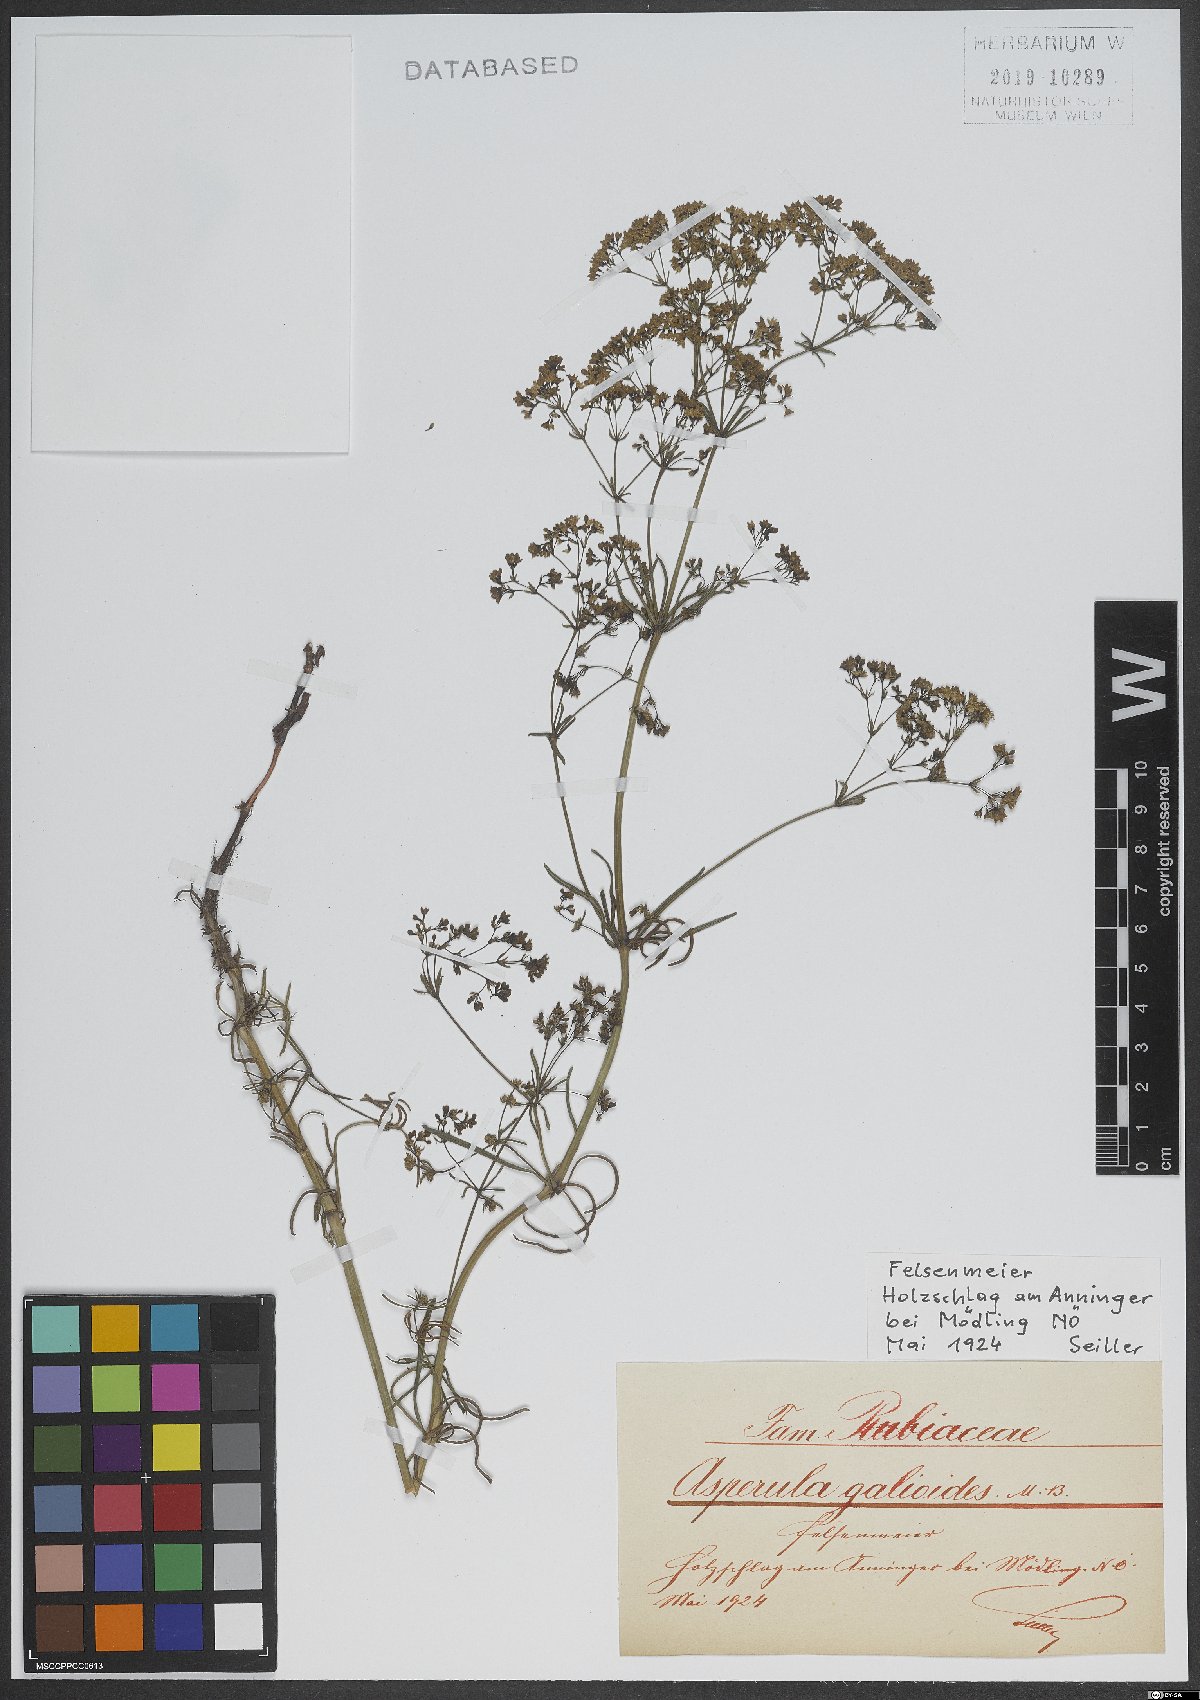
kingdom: Plantae
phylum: Tracheophyta
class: Magnoliopsida
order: Gentianales
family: Rubiaceae
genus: Galium
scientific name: Galium glaucum
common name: Waxy bedstraw
